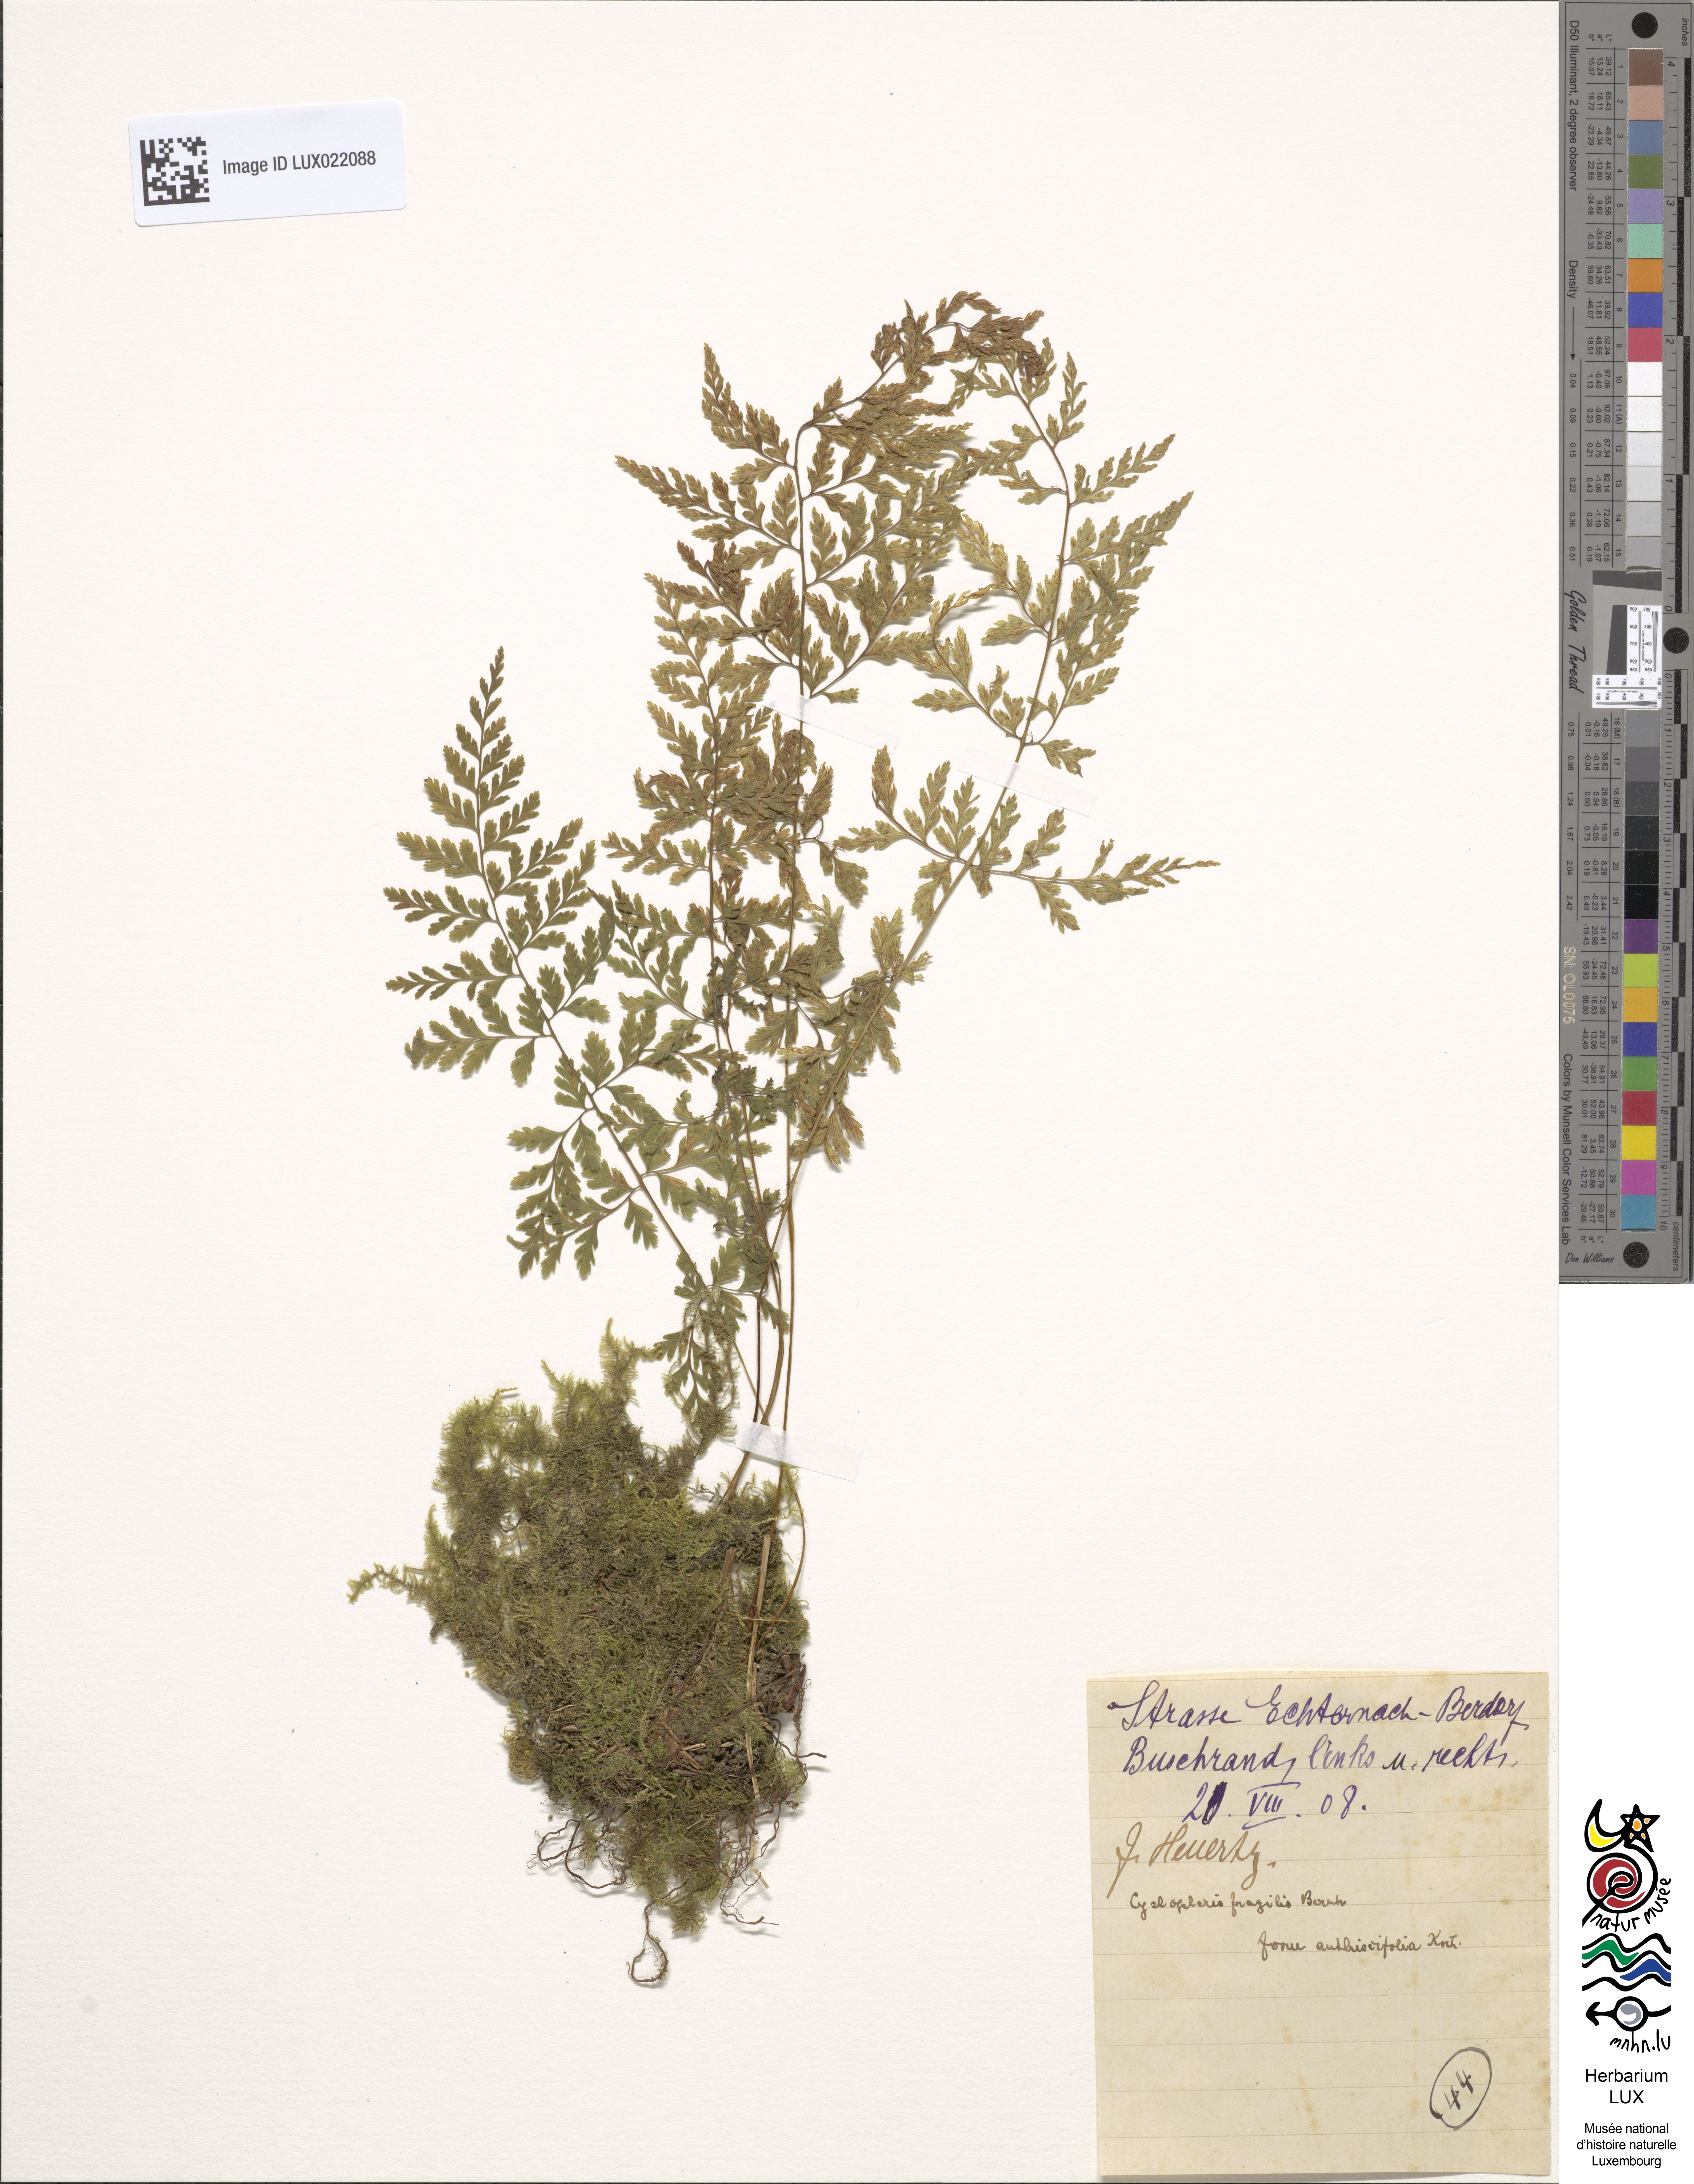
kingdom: Plantae
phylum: Tracheophyta
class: Polypodiopsida
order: Polypodiales
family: Cystopteridaceae
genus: Cystopteris
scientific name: Cystopteris fragilis
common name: Brittle bladder fern
